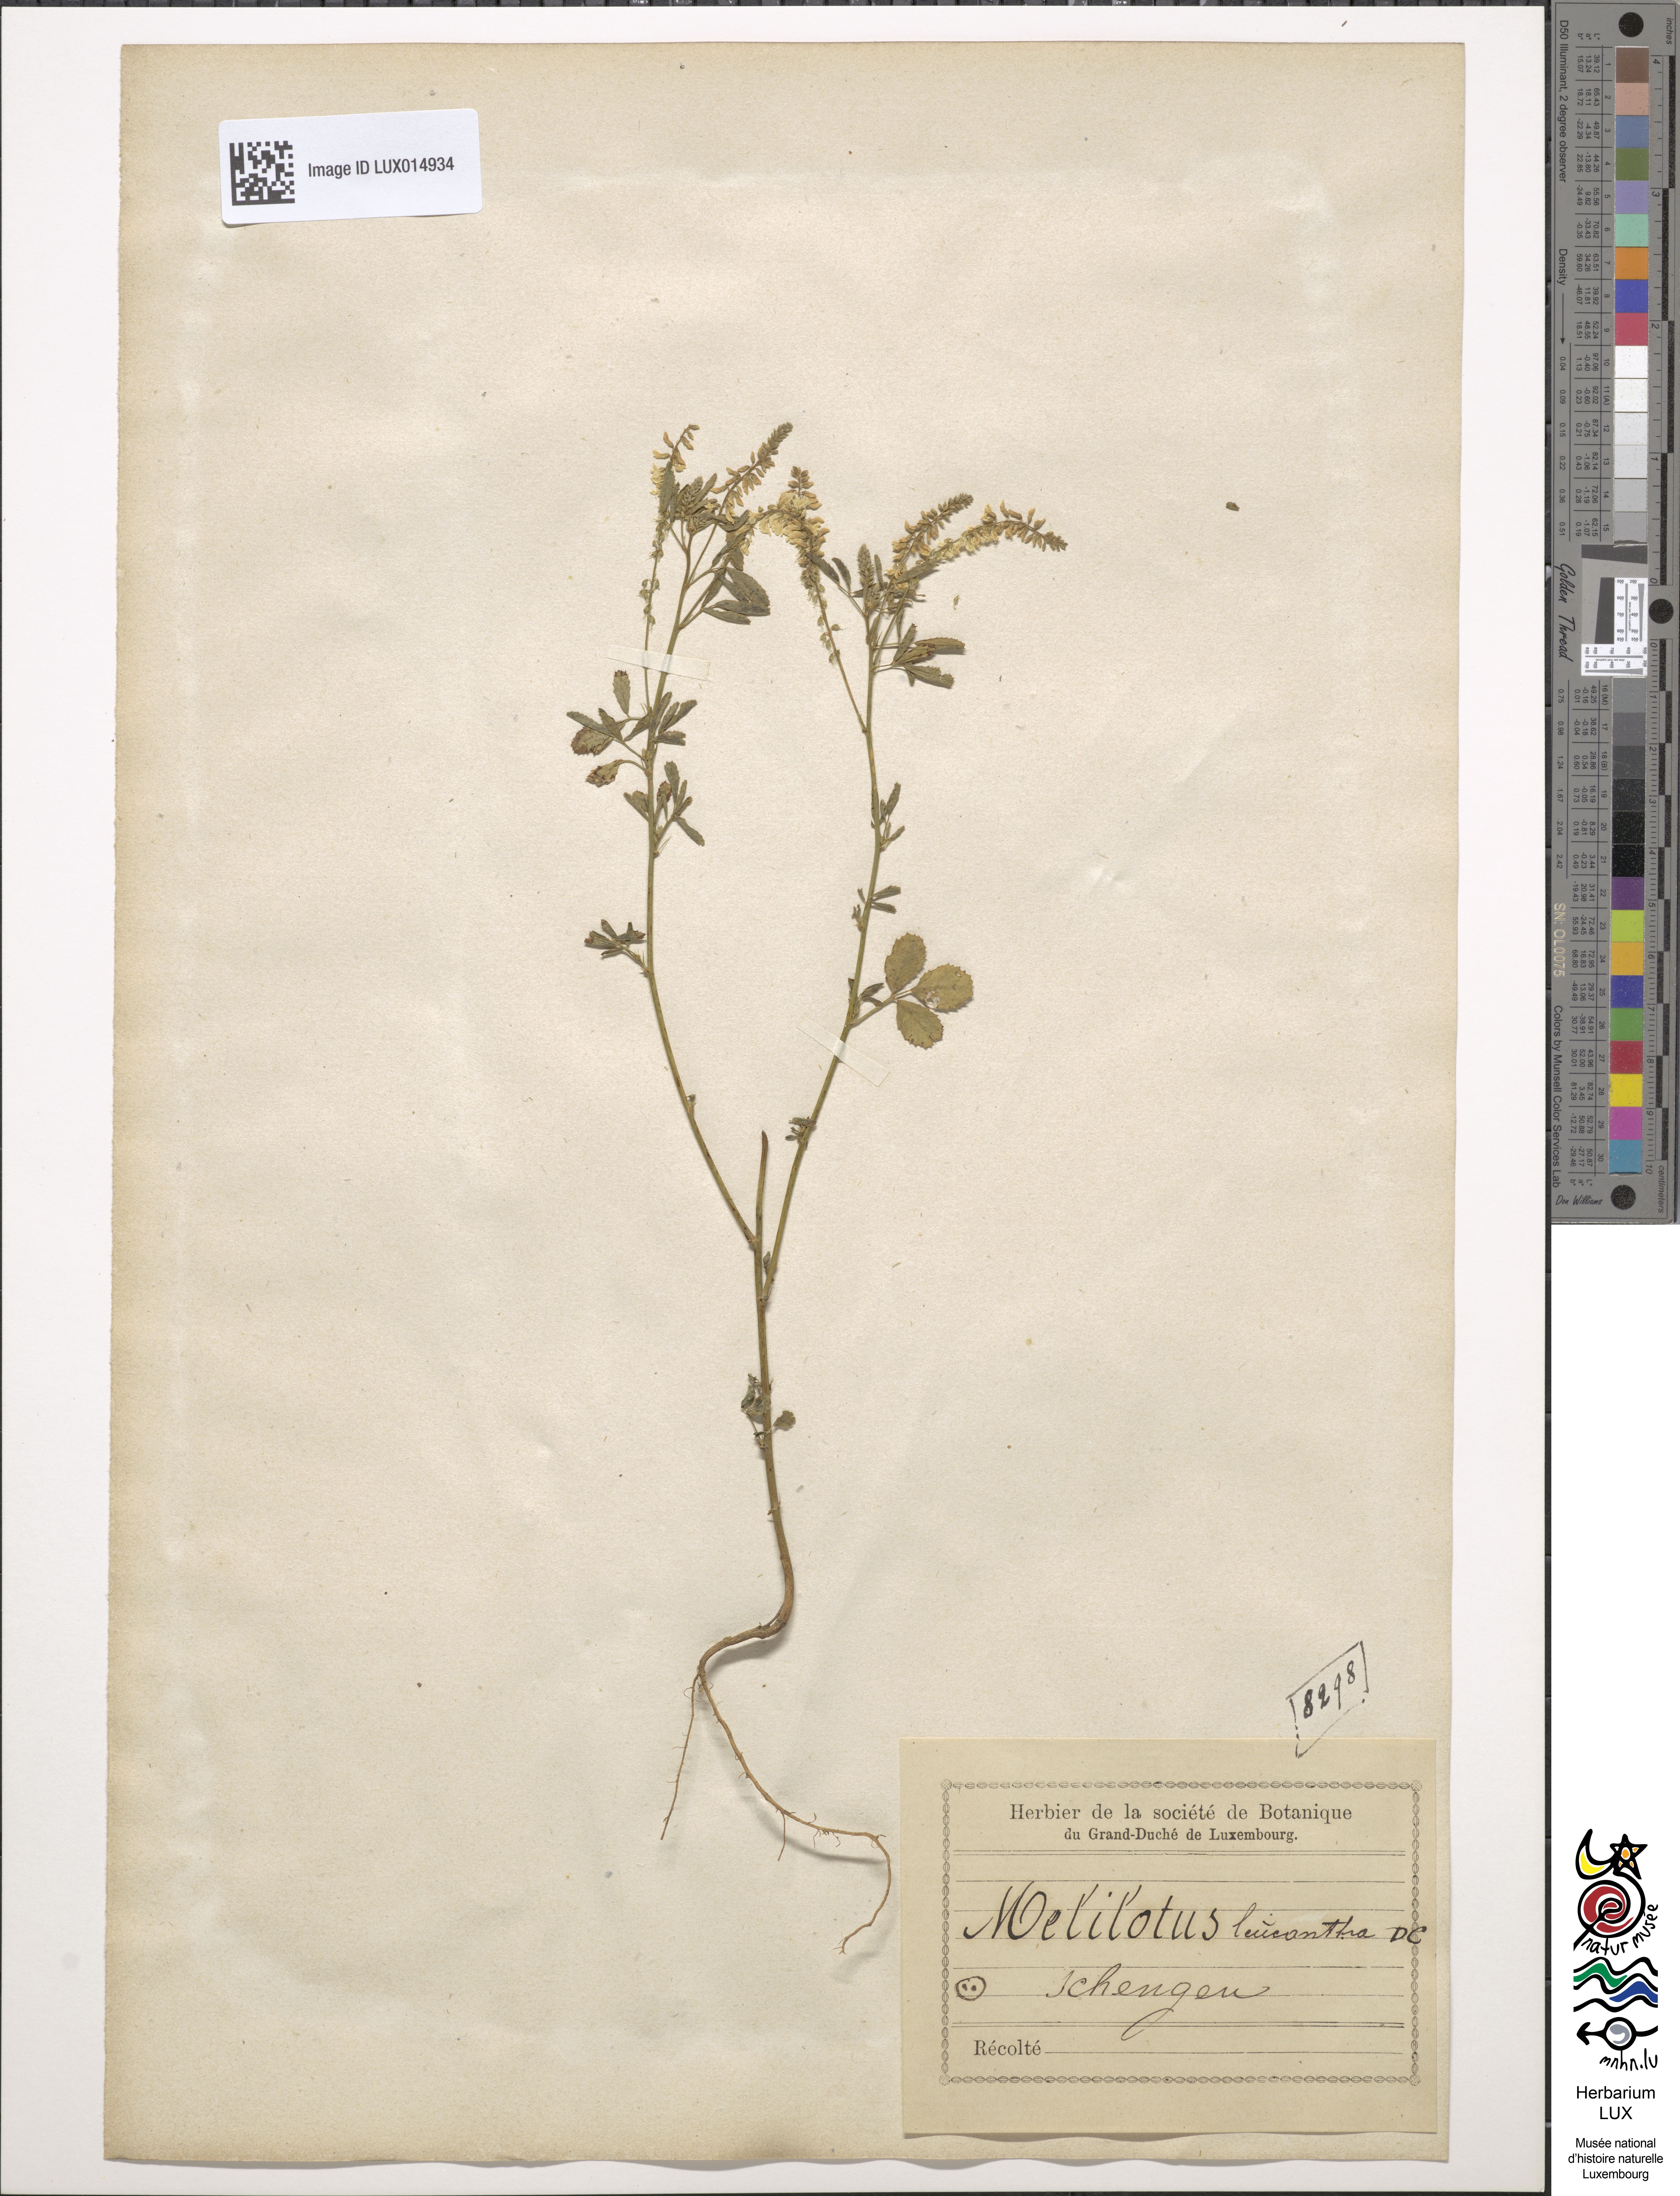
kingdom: Plantae
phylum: Tracheophyta
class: Magnoliopsida
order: Fabales
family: Fabaceae
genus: Melilotus
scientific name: Melilotus albus
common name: White melilot
